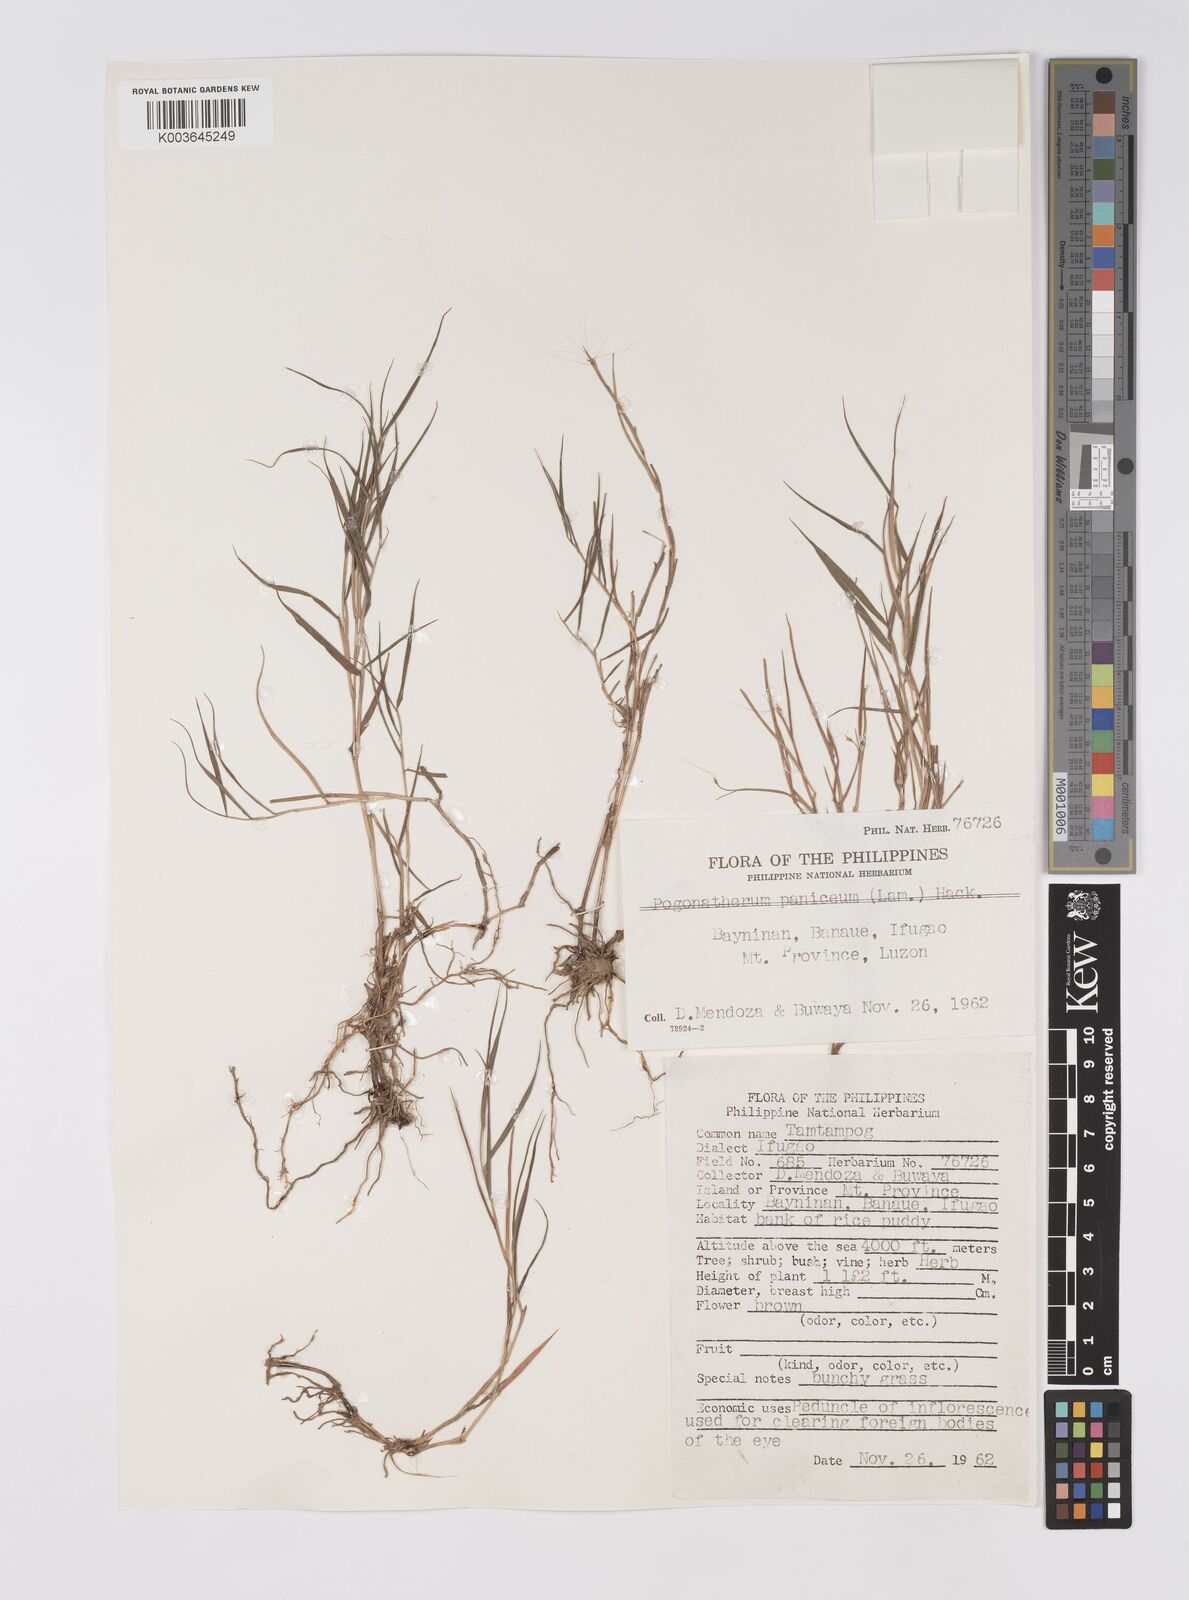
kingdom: Plantae
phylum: Tracheophyta
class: Liliopsida
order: Poales
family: Poaceae
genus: Pogonatherum
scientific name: Pogonatherum paniceum
